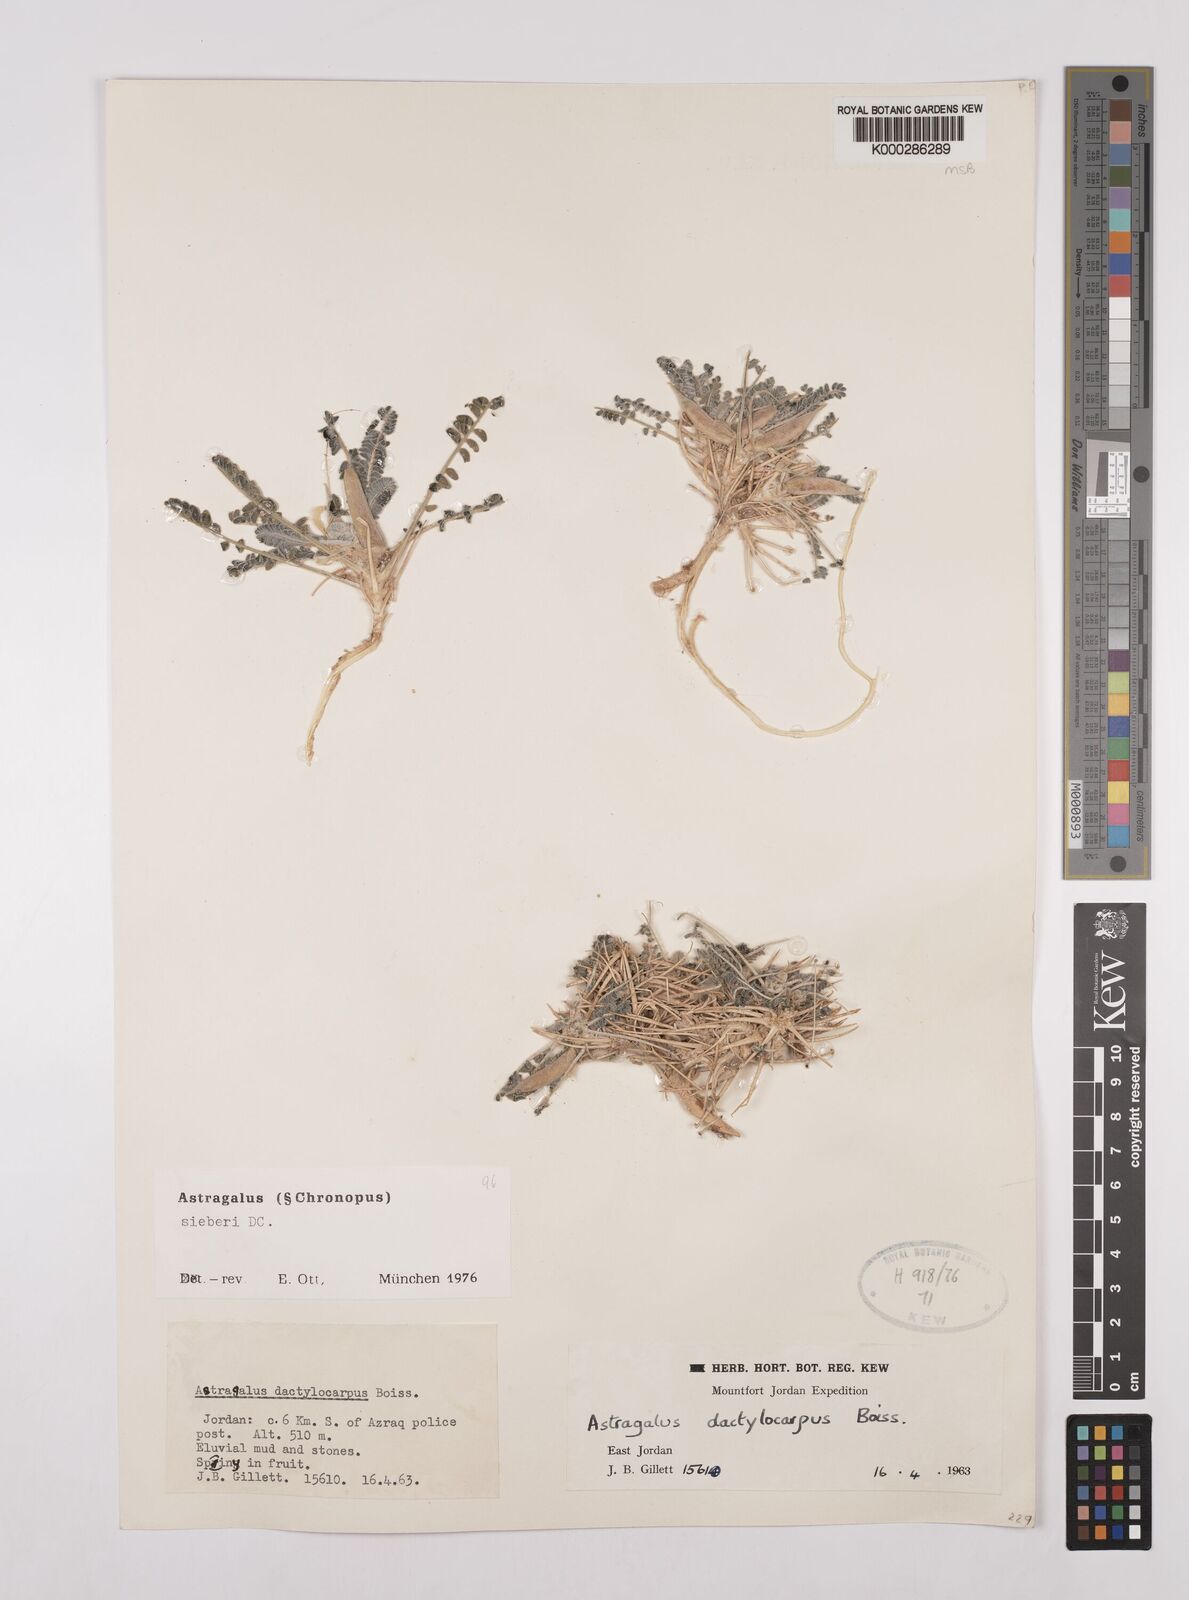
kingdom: Plantae
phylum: Tracheophyta
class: Magnoliopsida
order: Fabales
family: Fabaceae
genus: Astragalus
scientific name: Astragalus sieberi
